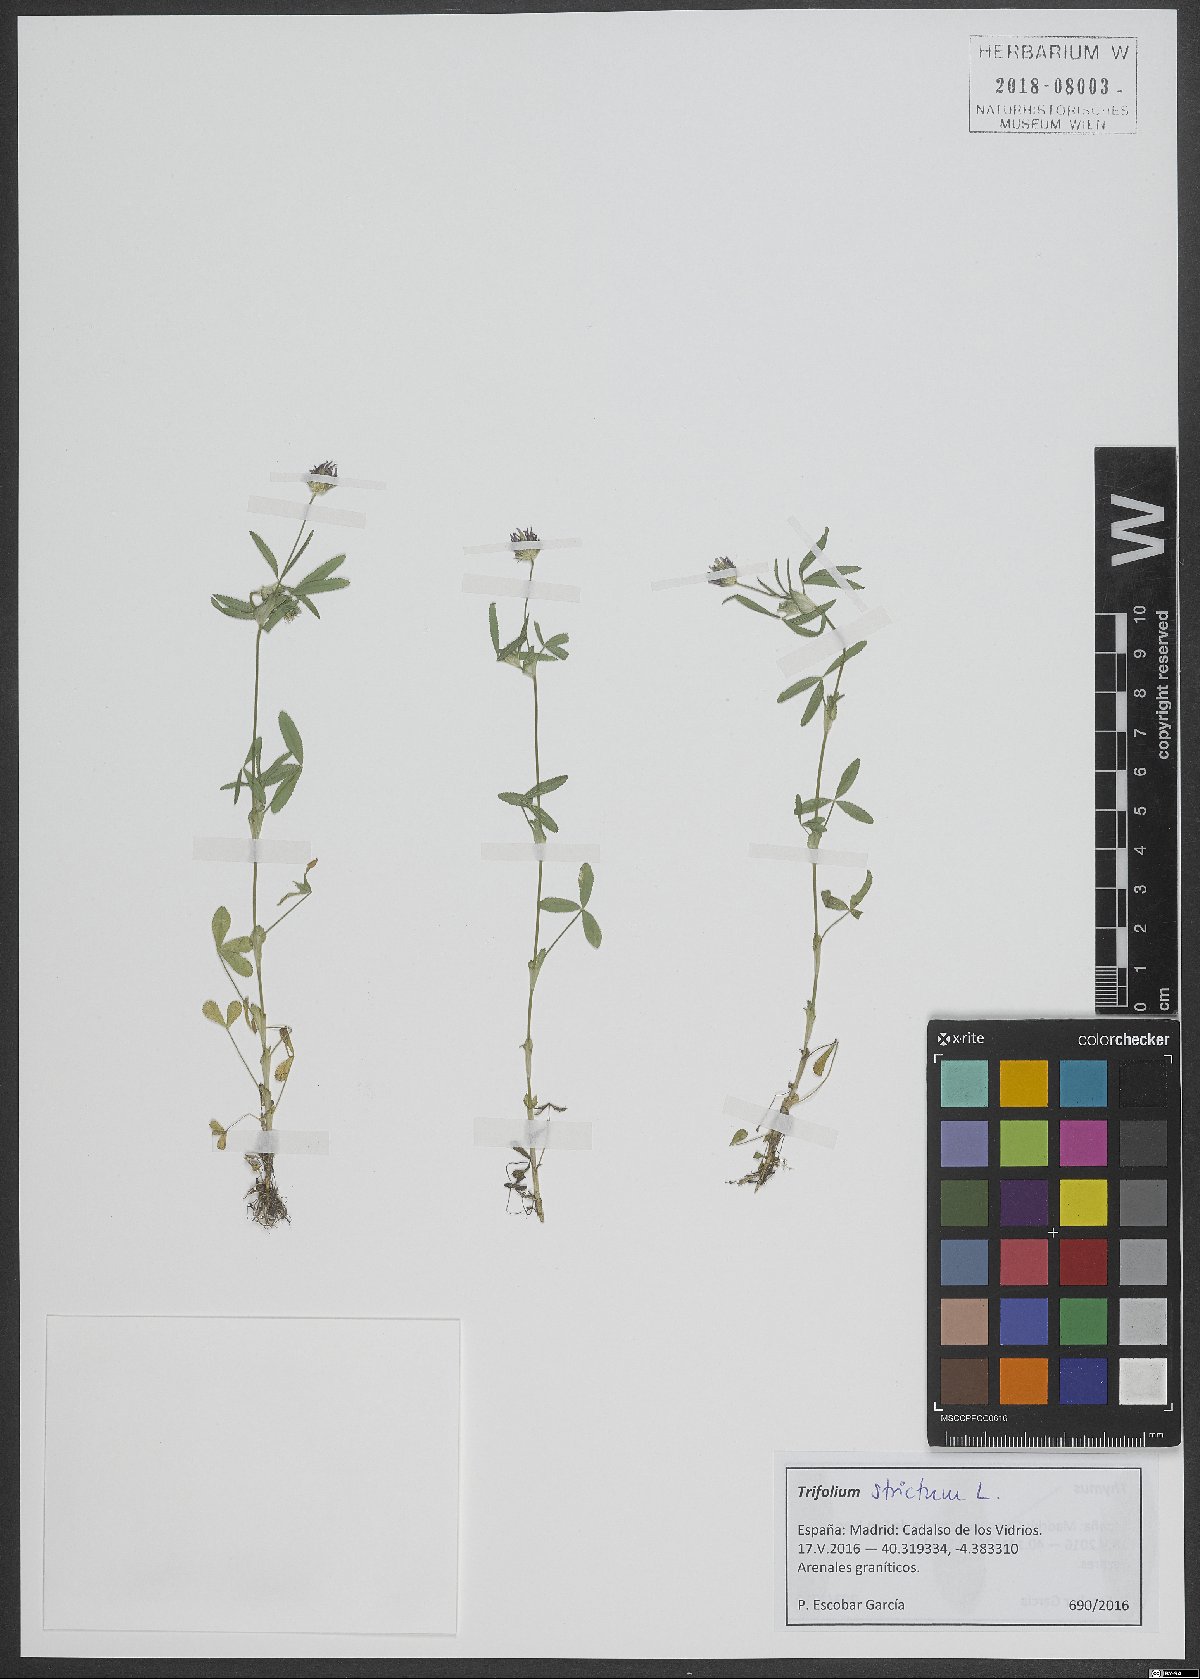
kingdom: Plantae
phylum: Tracheophyta
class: Magnoliopsida
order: Fabales
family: Fabaceae
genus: Trifolium
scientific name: Trifolium strictum
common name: Upright clover
